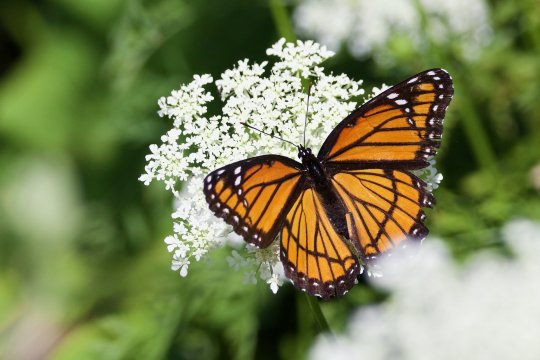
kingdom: Animalia
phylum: Arthropoda
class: Insecta
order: Lepidoptera
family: Nymphalidae
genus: Limenitis
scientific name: Limenitis archippus
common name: Viceroy
